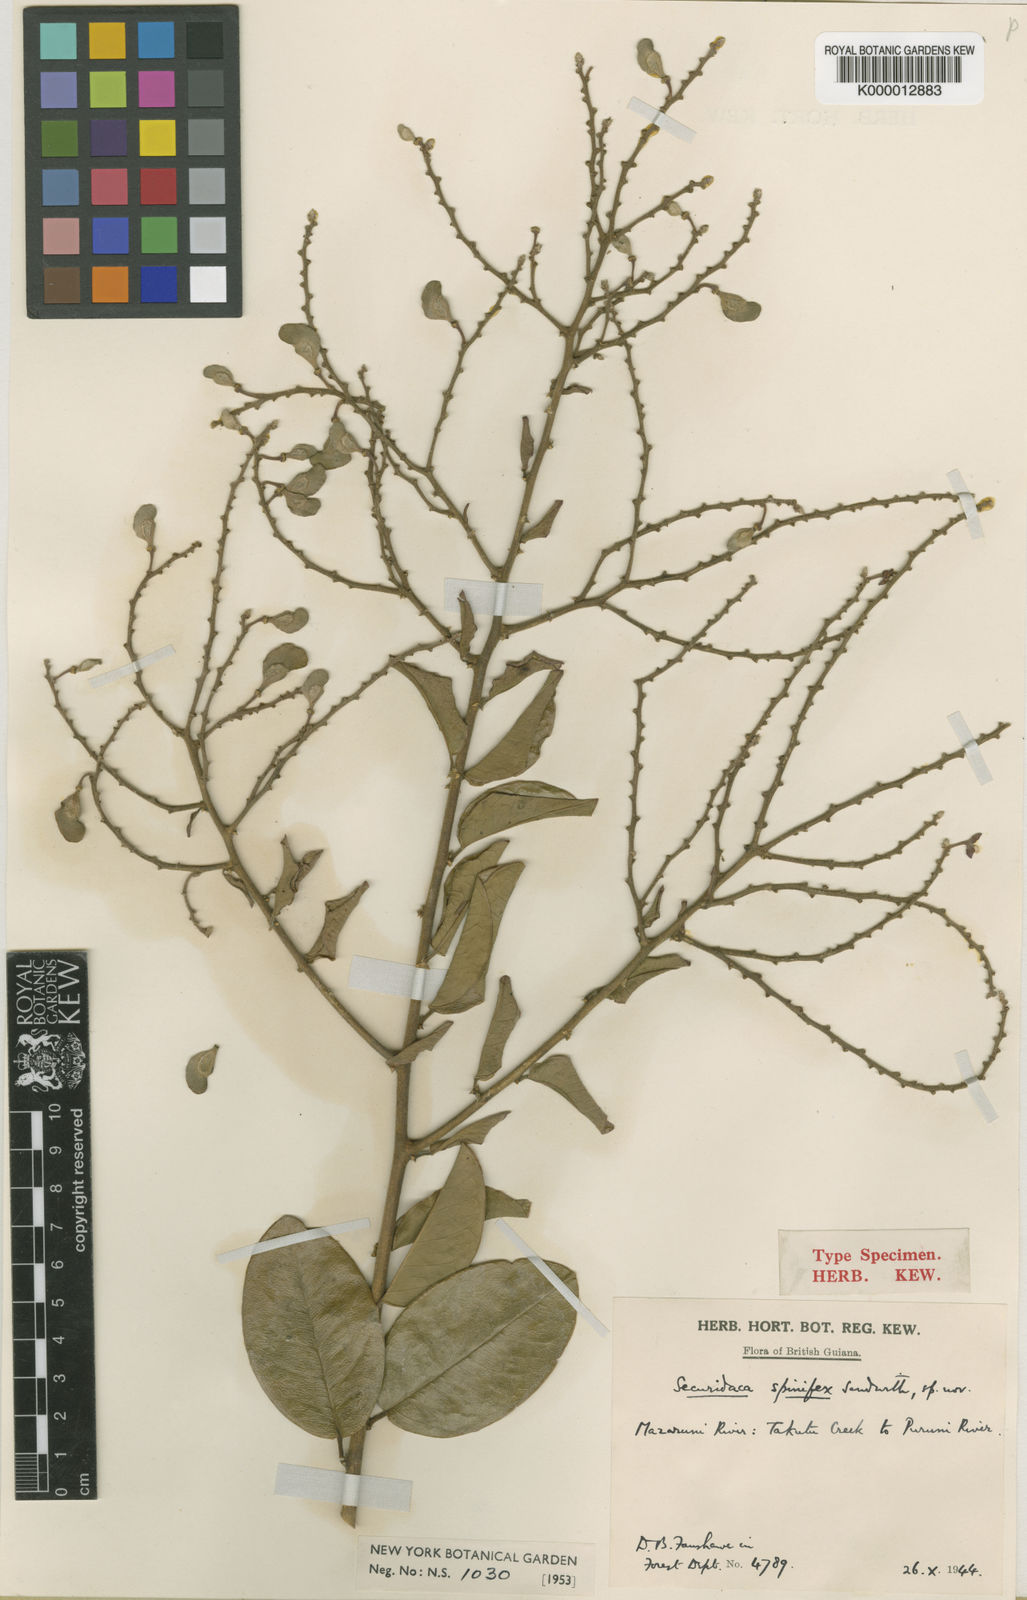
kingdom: Plantae
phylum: Tracheophyta
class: Magnoliopsida
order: Fabales
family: Polygalaceae
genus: Securidaca
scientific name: Securidaca spinifex
